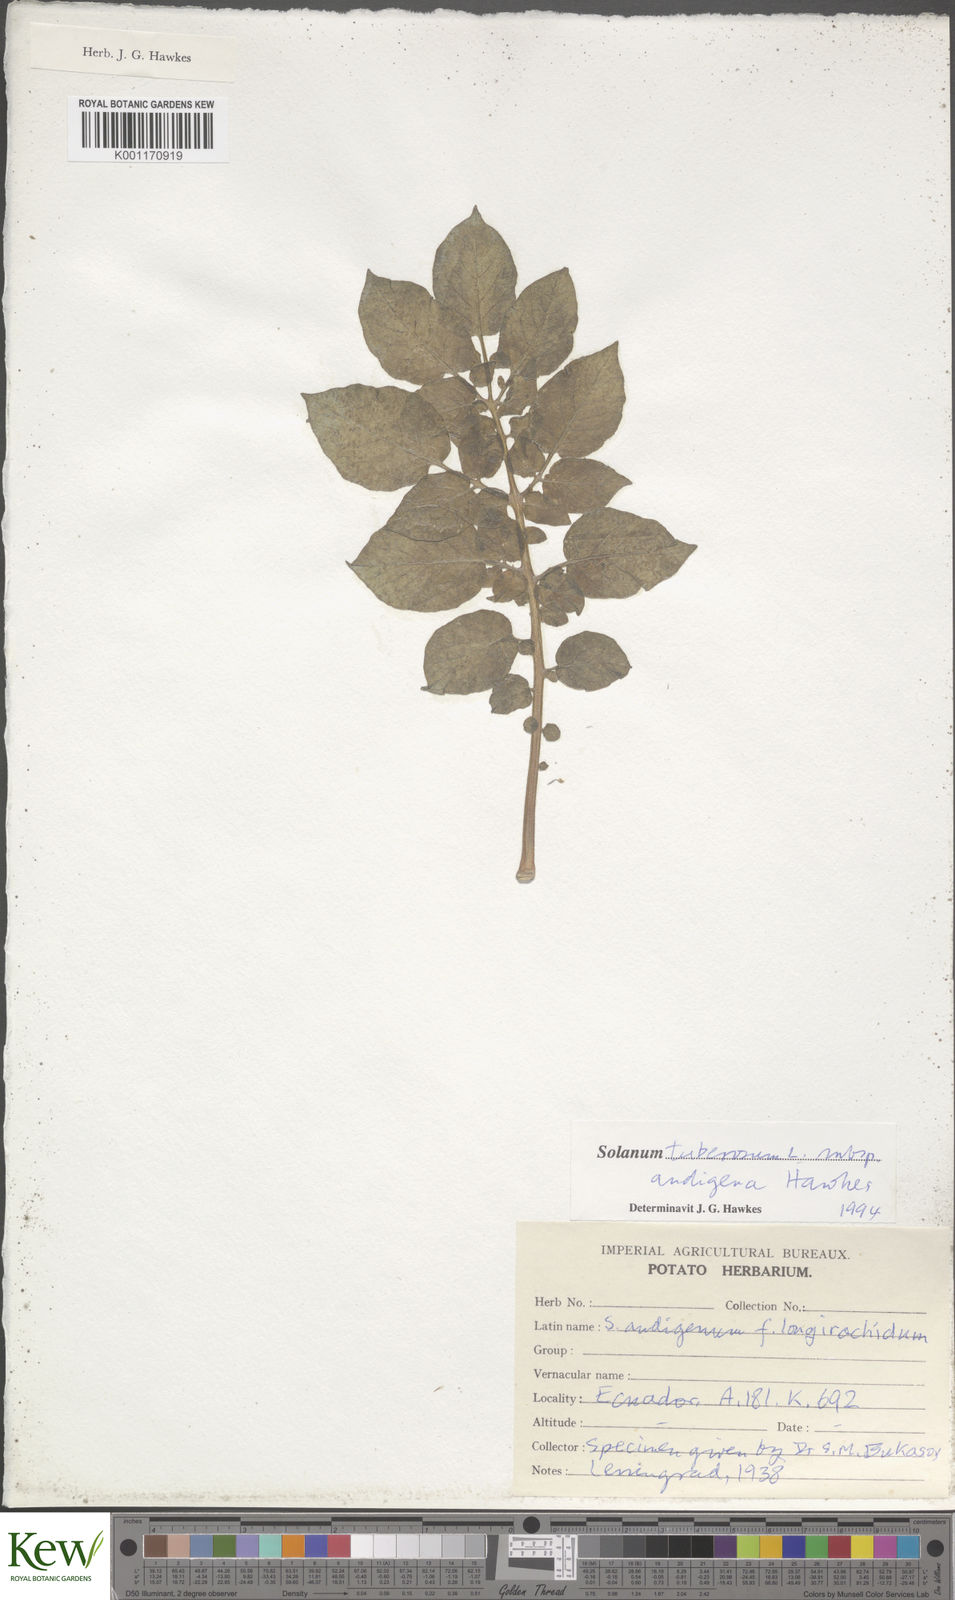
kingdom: Plantae
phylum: Tracheophyta
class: Magnoliopsida
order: Solanales
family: Solanaceae
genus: Solanum
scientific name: Solanum tuberosum
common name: Potato
